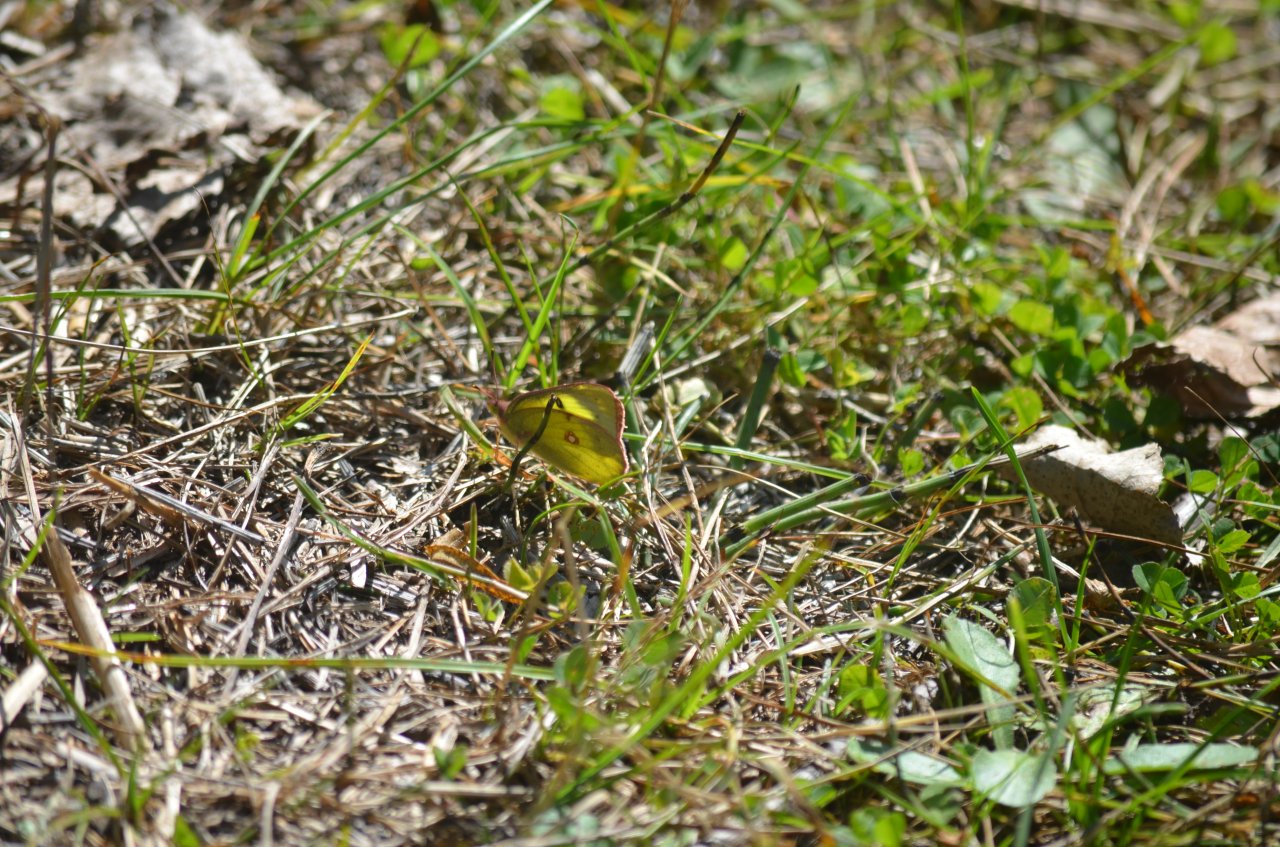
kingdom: Animalia
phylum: Arthropoda
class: Insecta
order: Lepidoptera
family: Pieridae
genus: Colias
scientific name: Colias philodice
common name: Clouded Sulphur
